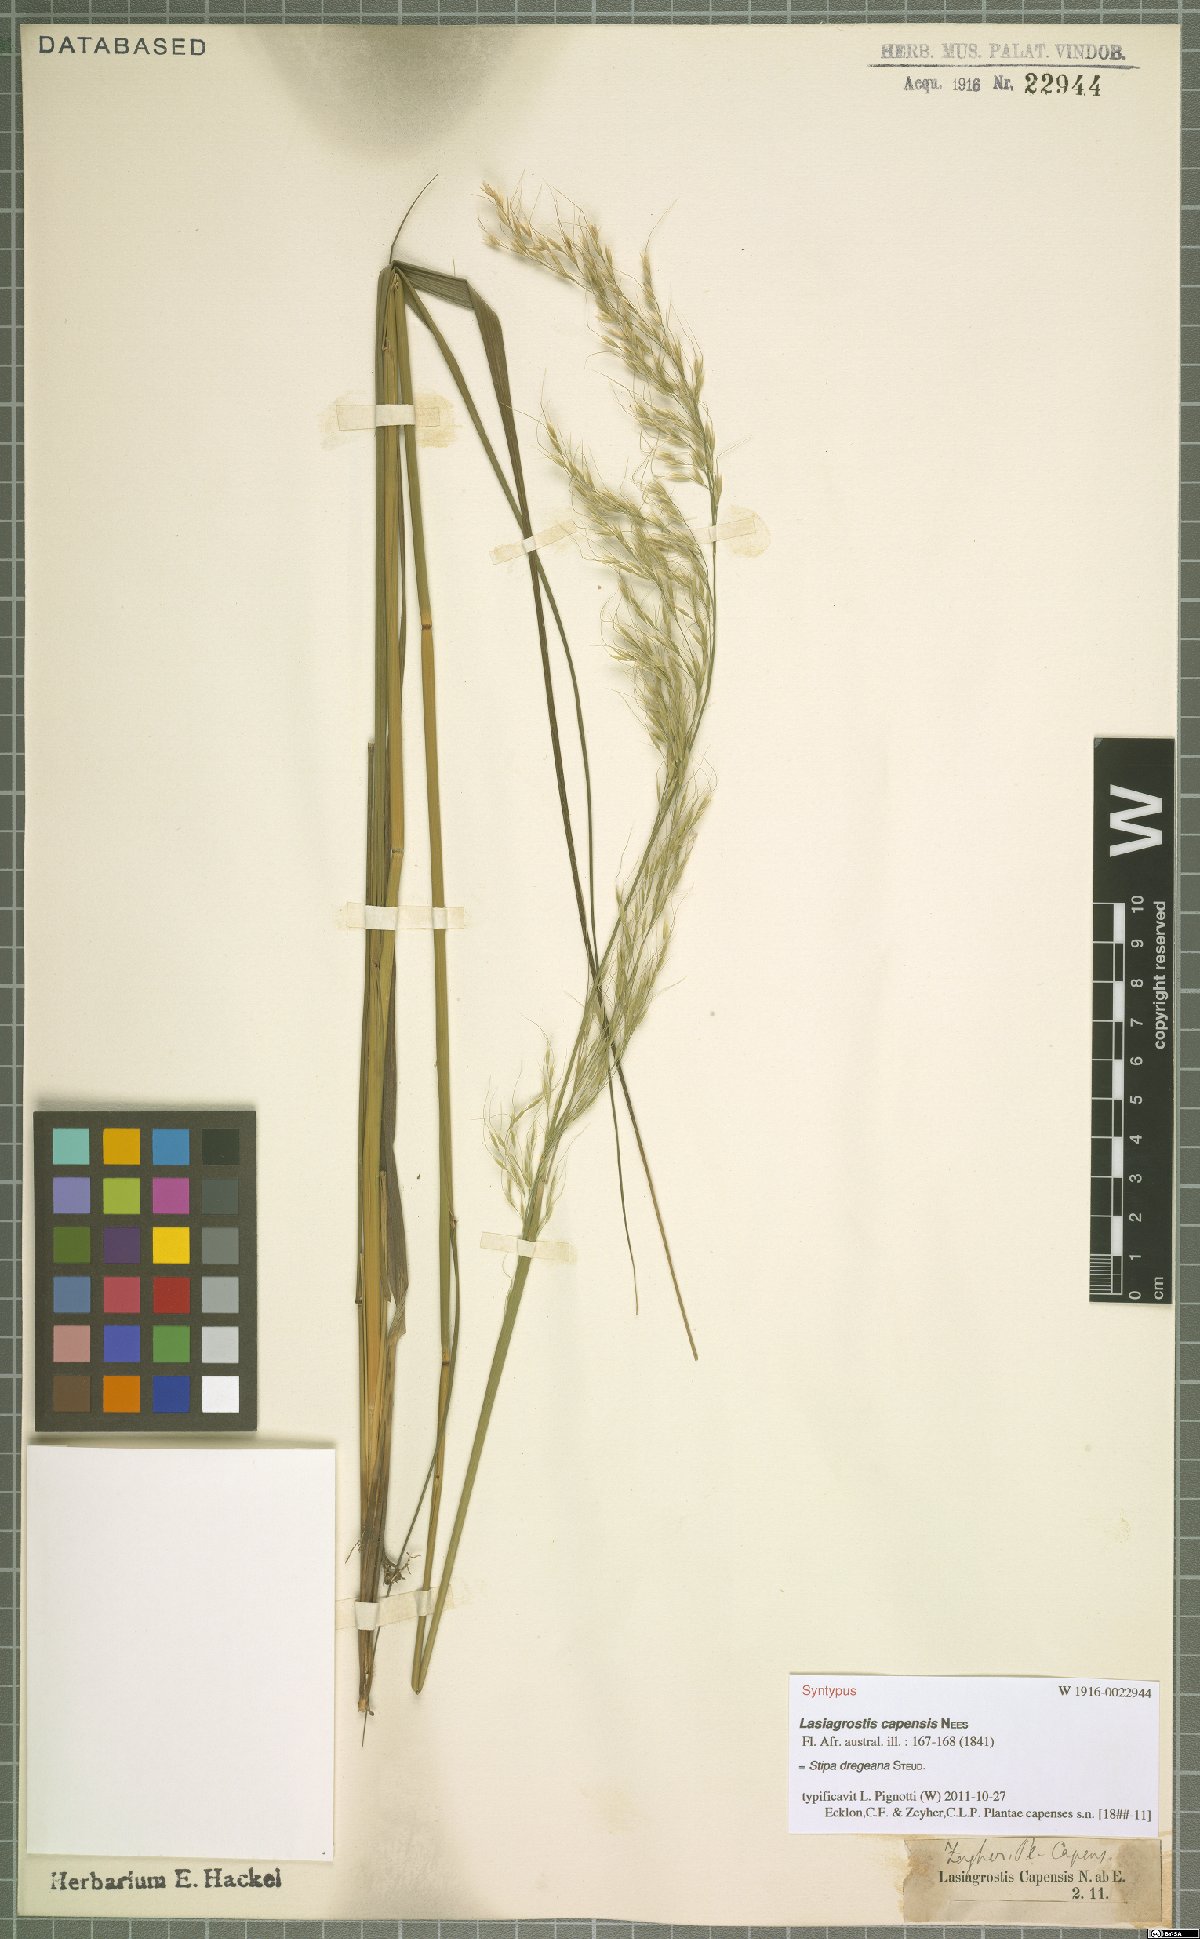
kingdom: Plantae
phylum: Tracheophyta
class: Liliopsida
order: Poales
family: Poaceae
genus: Stipa
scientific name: Stipa dregeana
